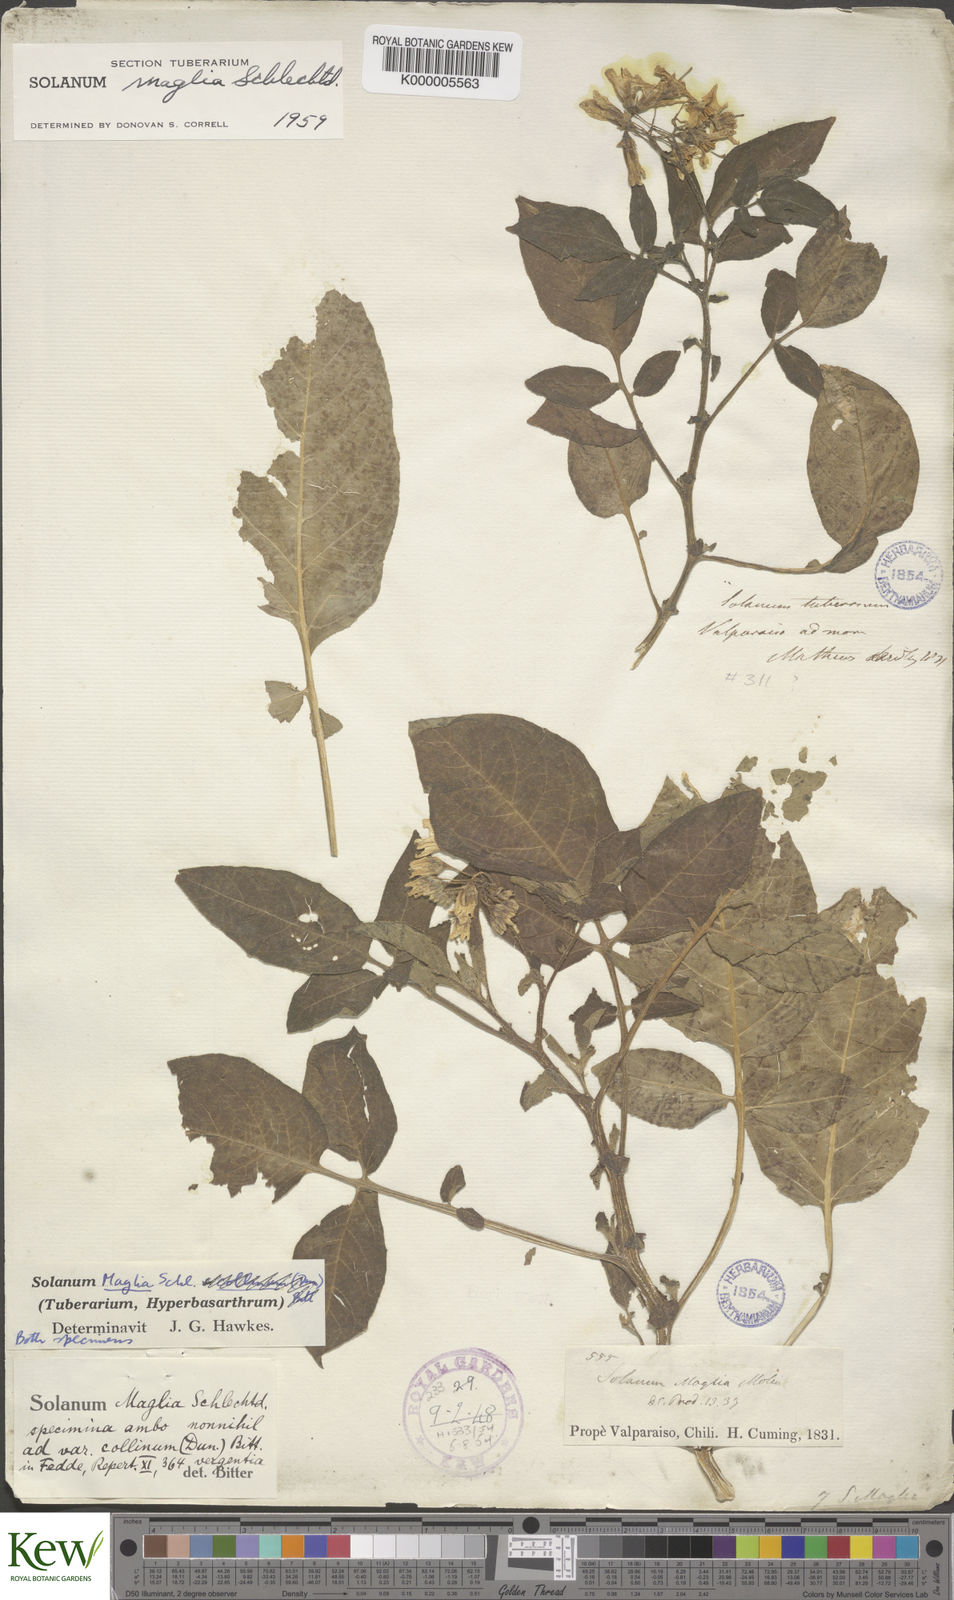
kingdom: Plantae
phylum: Tracheophyta
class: Magnoliopsida
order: Solanales
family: Solanaceae
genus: Solanum
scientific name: Solanum maglia
